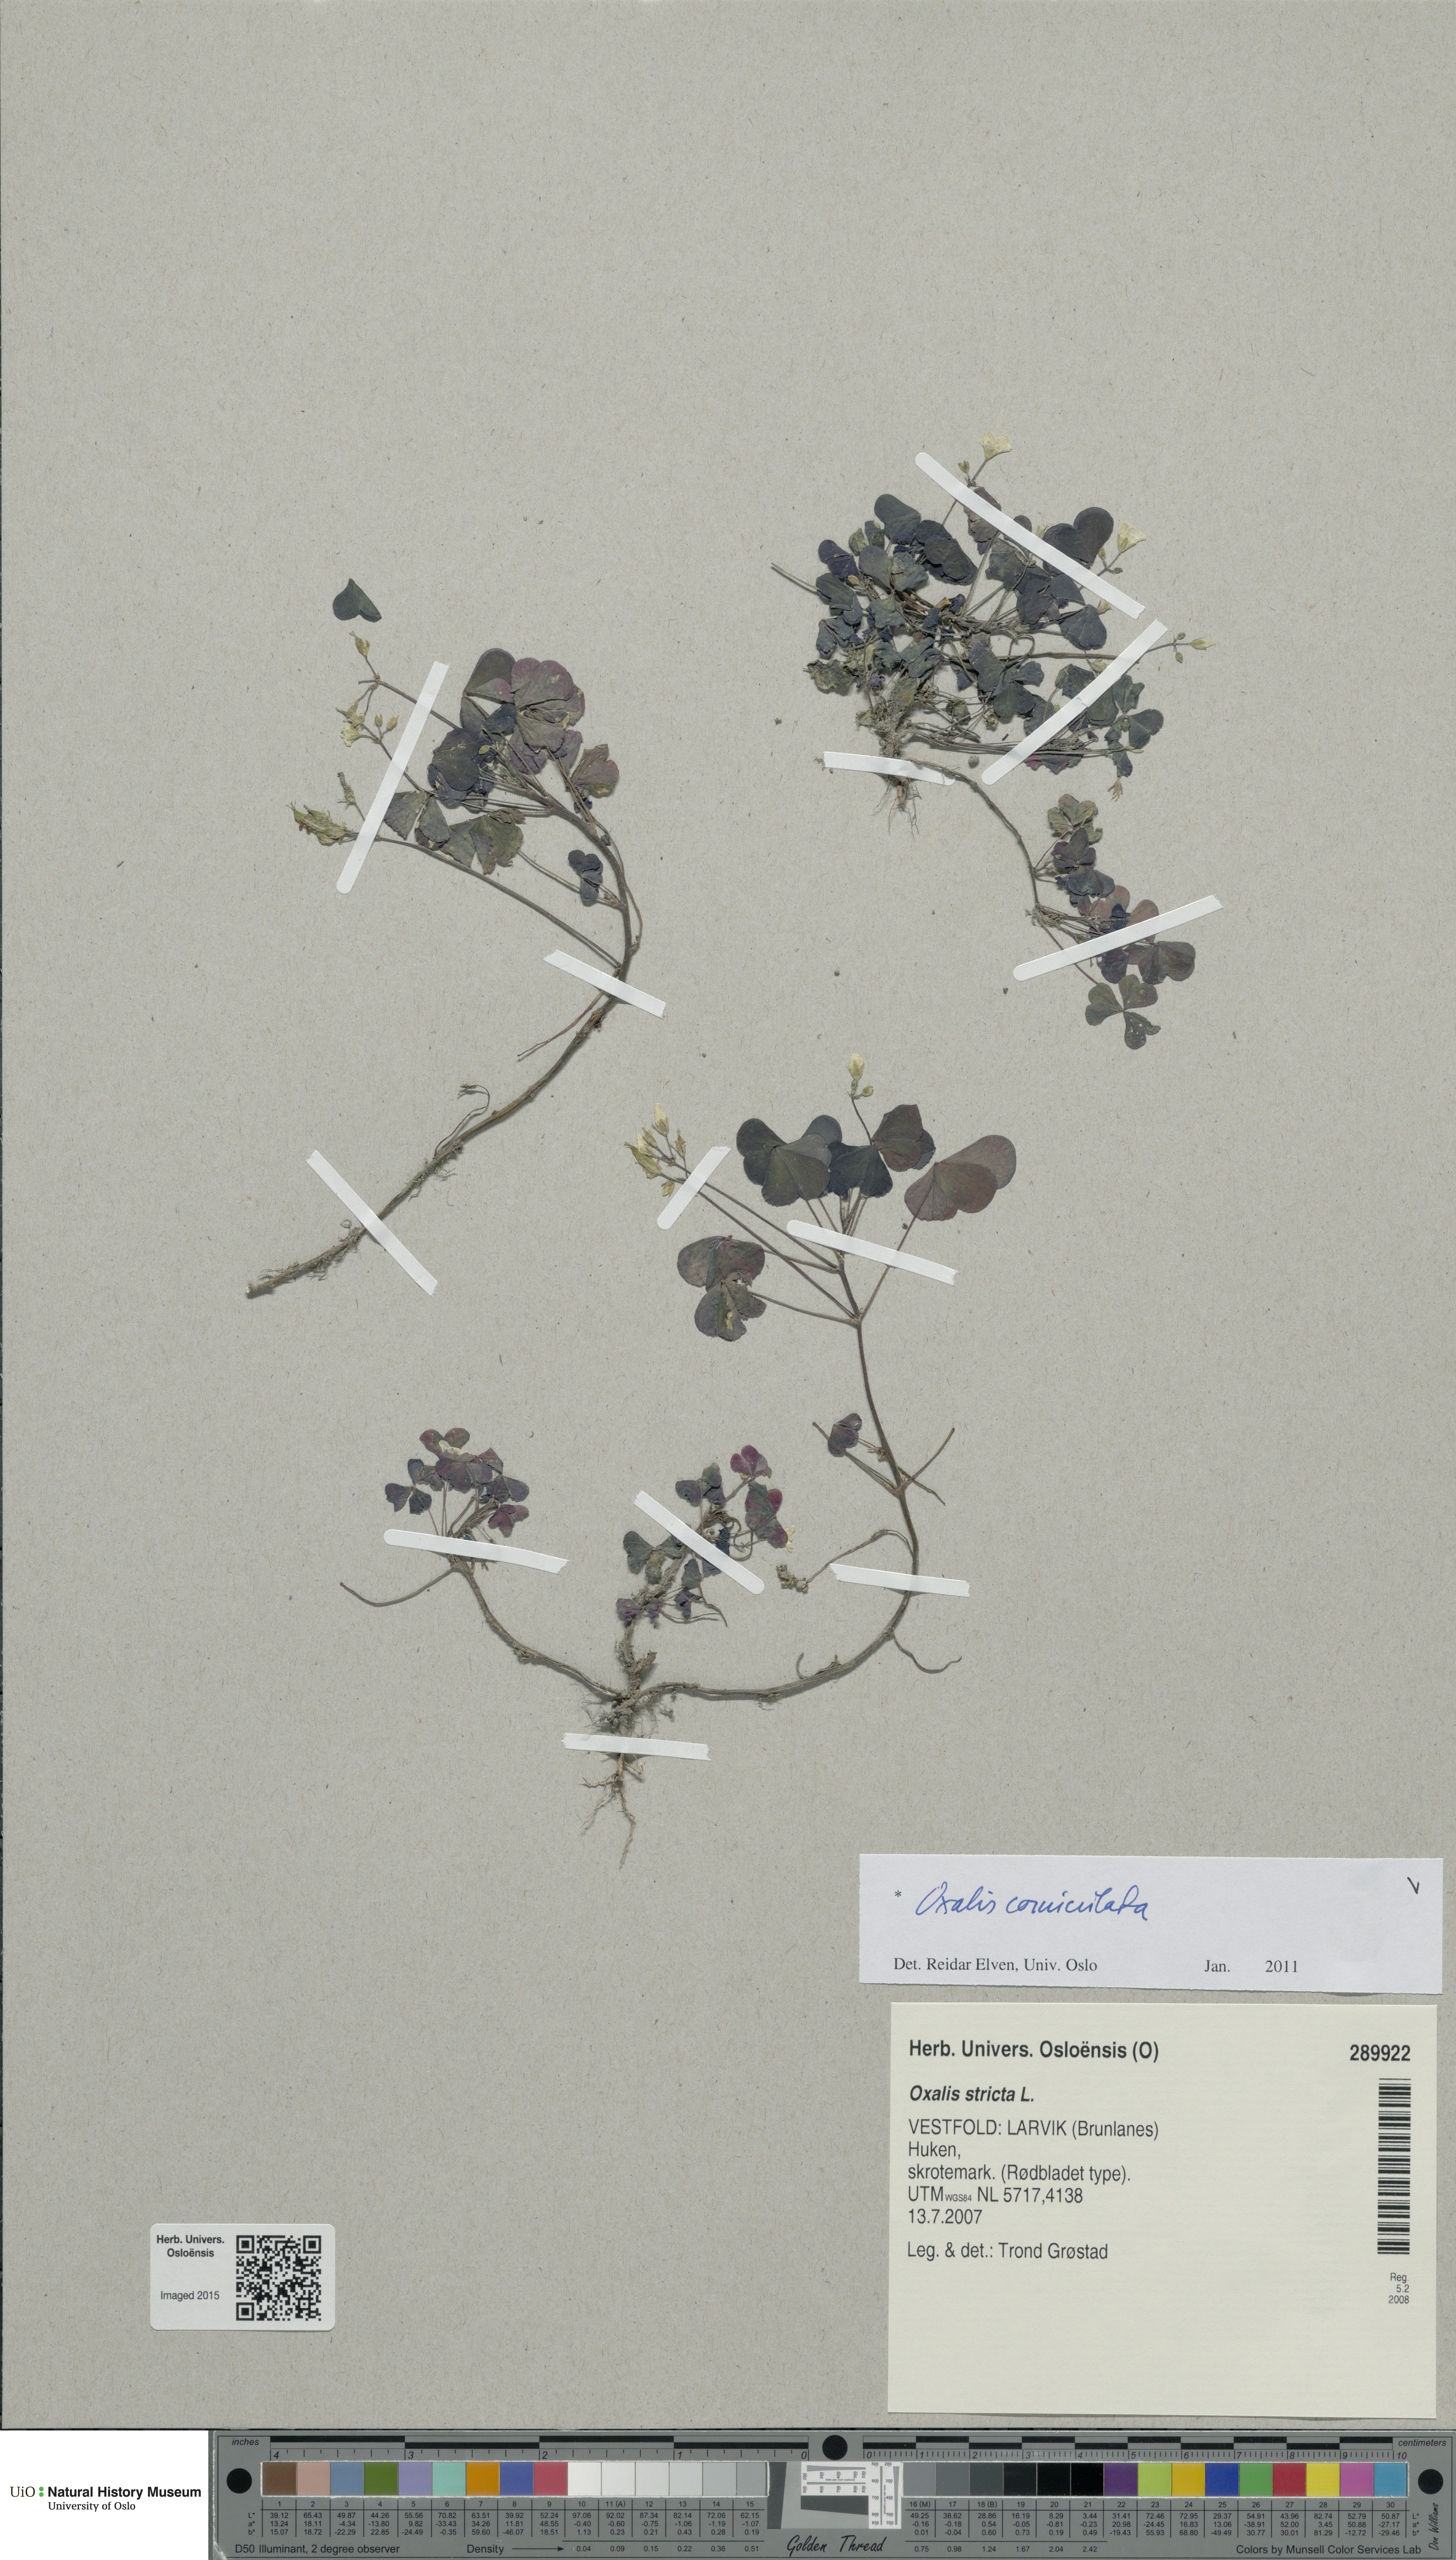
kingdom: Plantae
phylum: Tracheophyta
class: Magnoliopsida
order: Oxalidales
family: Oxalidaceae
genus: Oxalis
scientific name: Oxalis corniculata
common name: Procumbent yellow-sorrel
